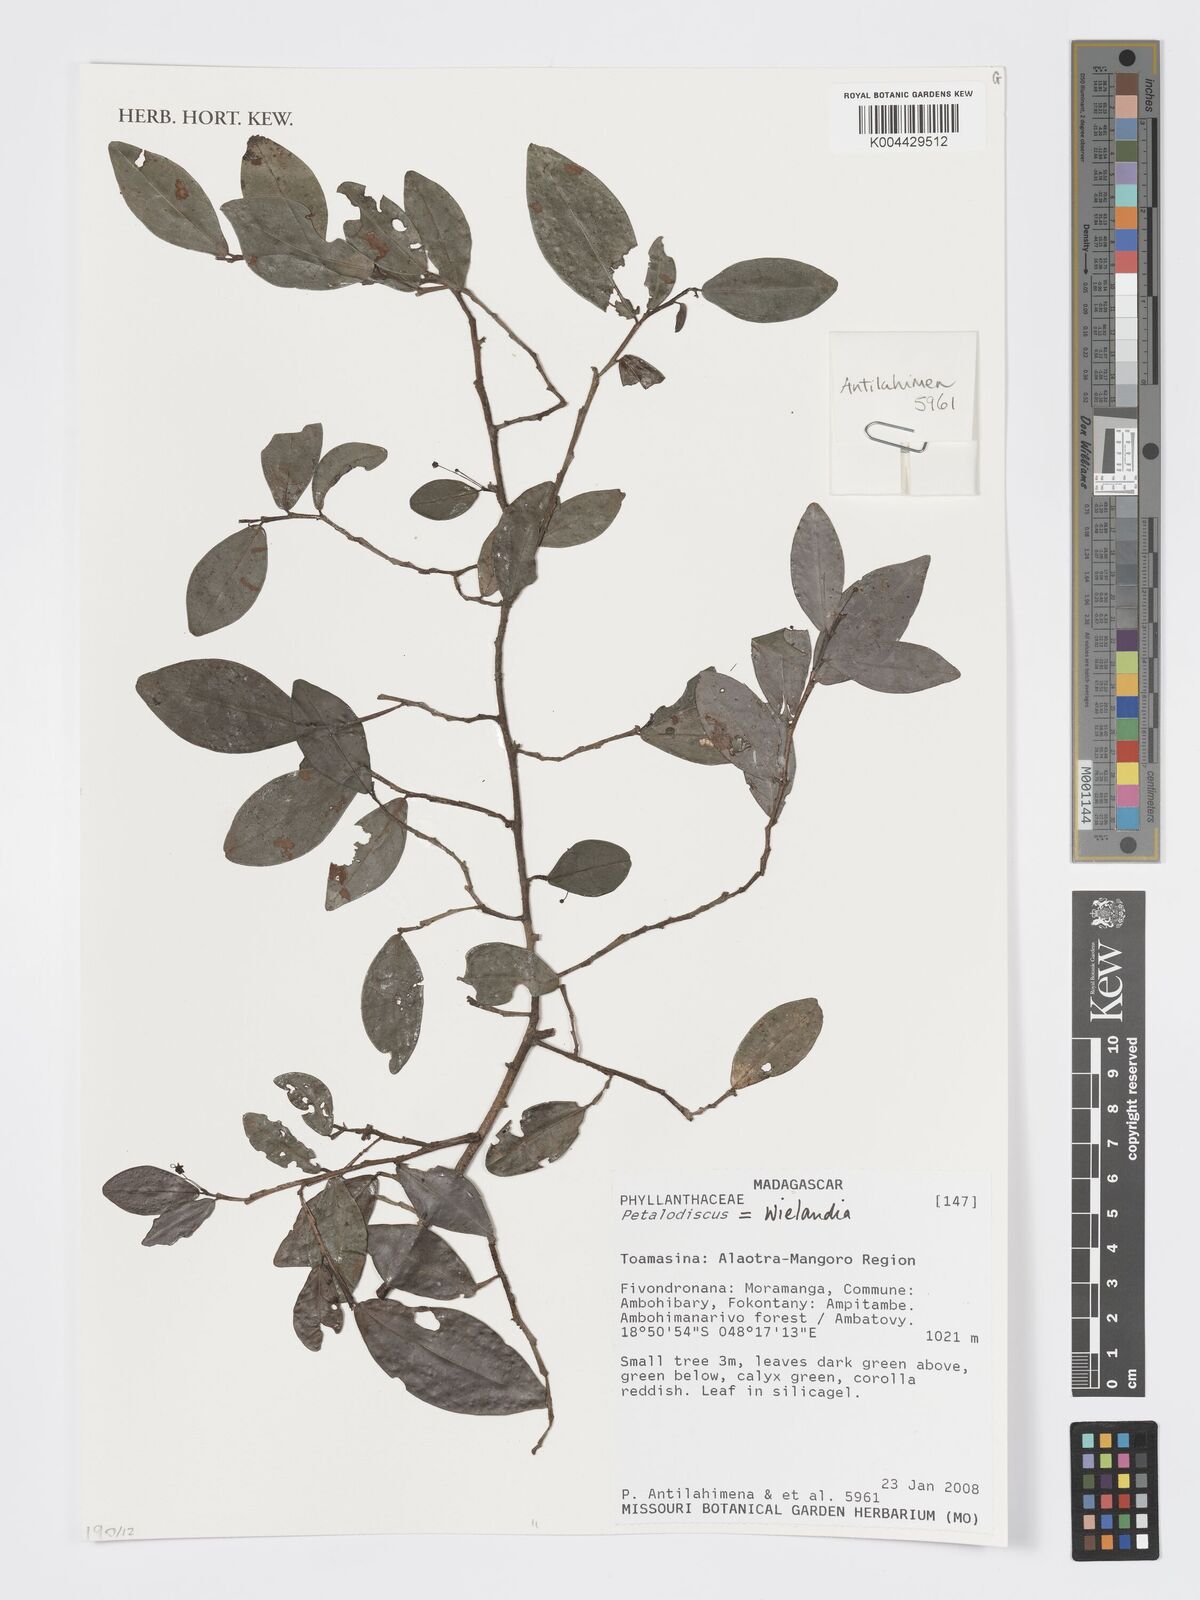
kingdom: Plantae
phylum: Tracheophyta
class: Magnoliopsida
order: Malpighiales
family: Phyllanthaceae
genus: Wielandia
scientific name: Wielandia
